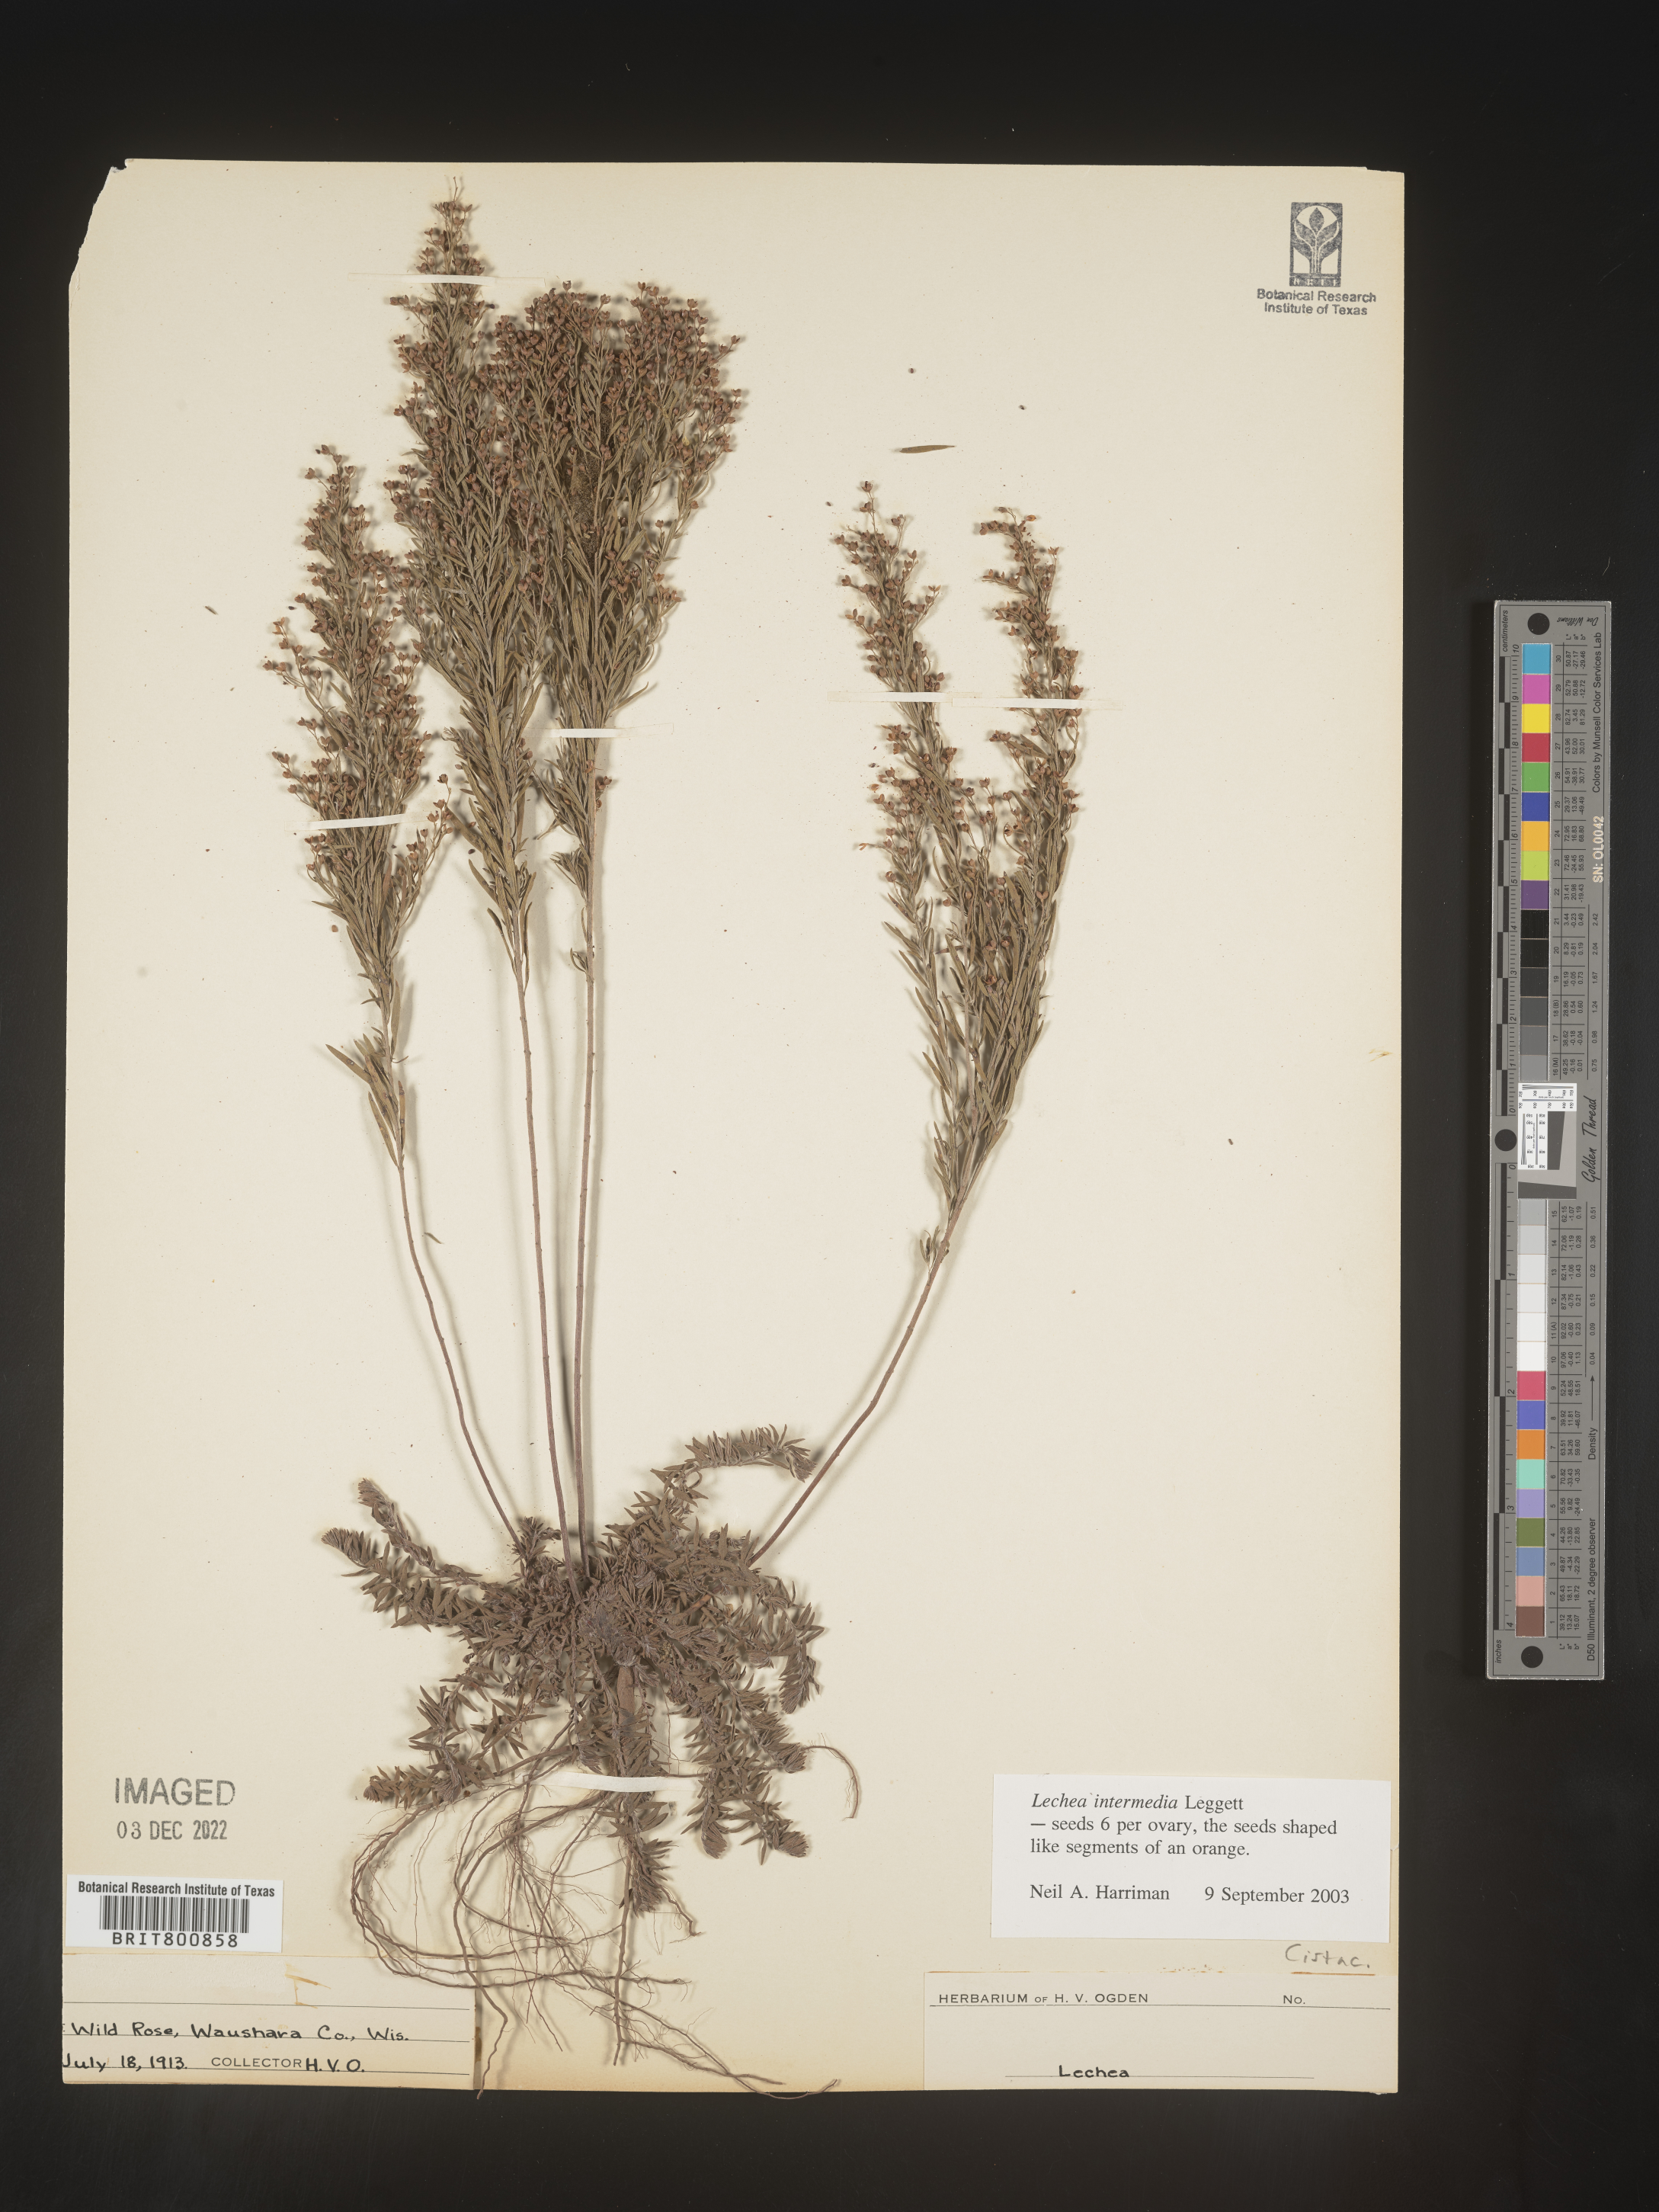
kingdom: Plantae
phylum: Tracheophyta
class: Magnoliopsida
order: Malvales
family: Cistaceae
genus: Lechea
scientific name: Lechea intermedia
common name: Intermediate pinweed
